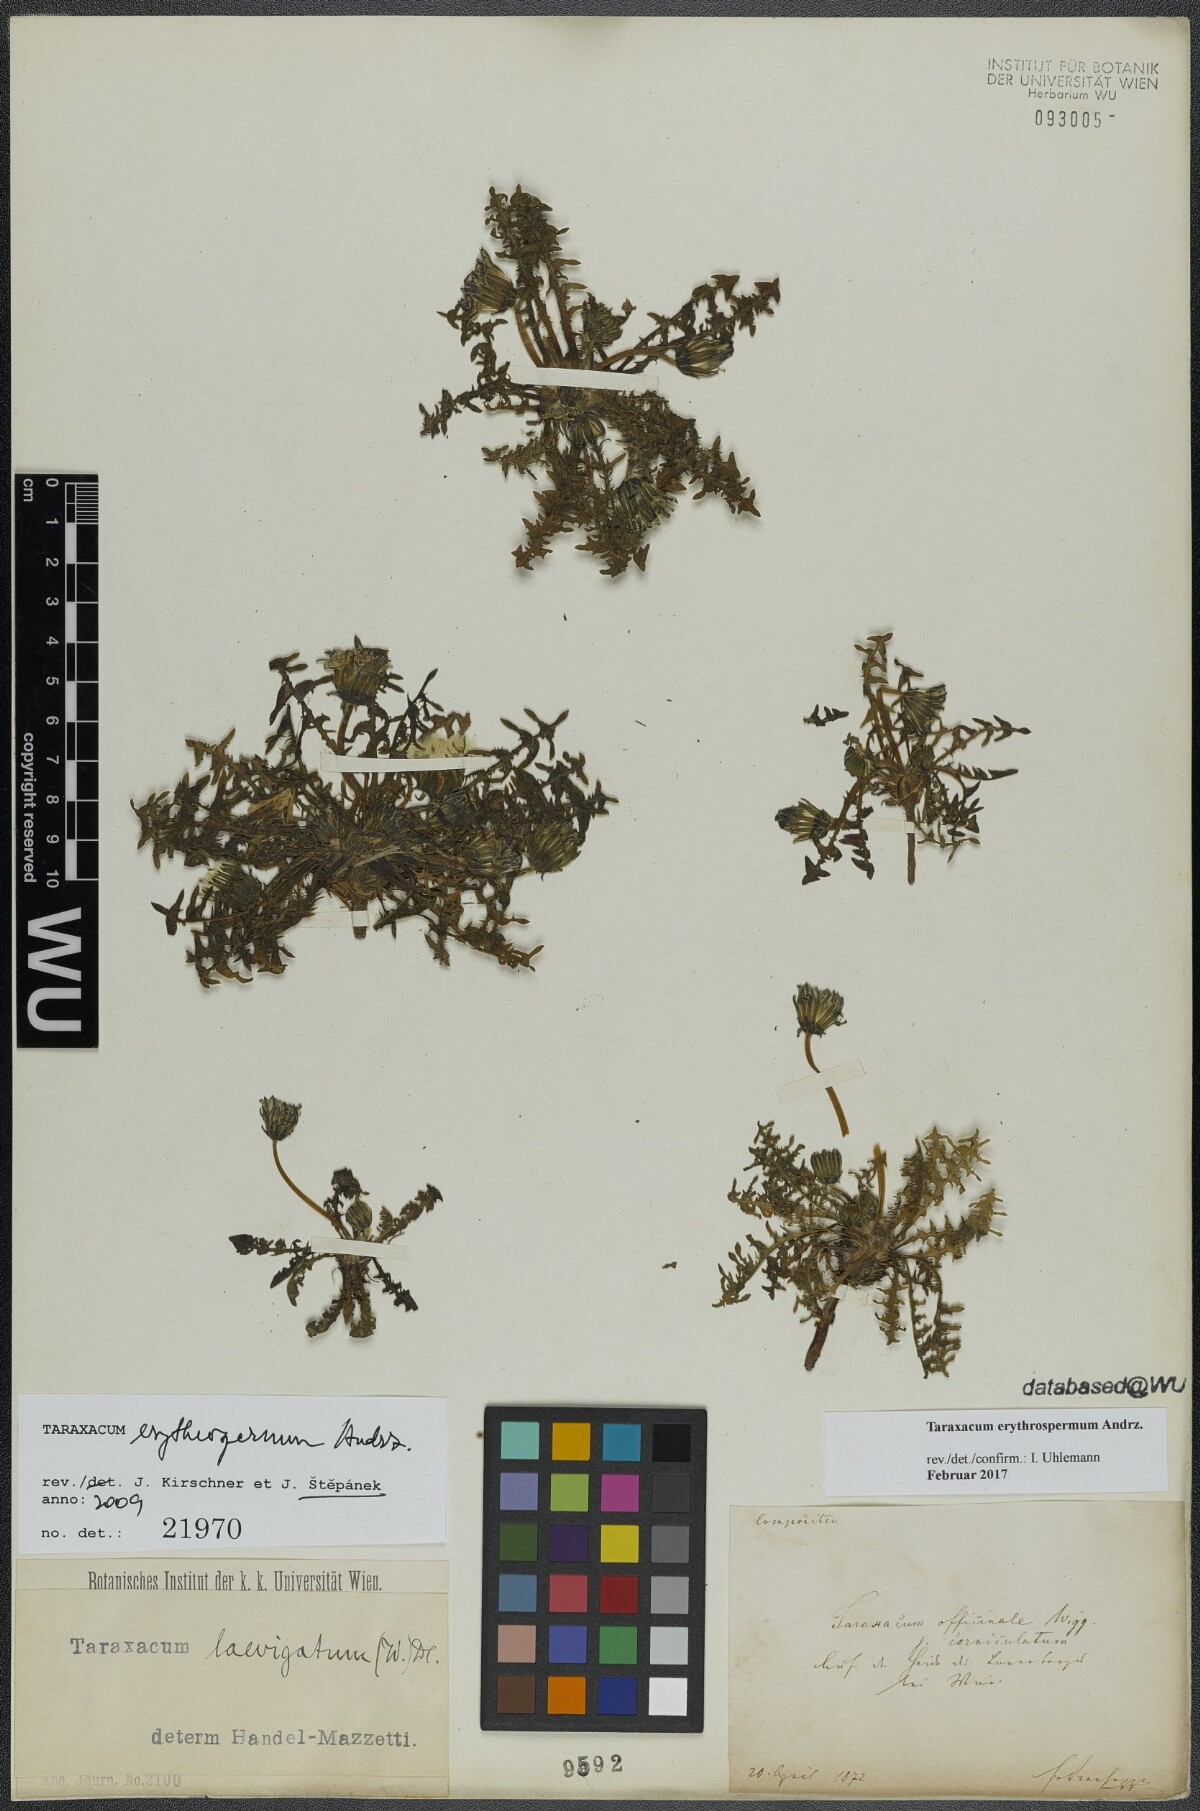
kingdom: Plantae
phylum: Tracheophyta
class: Magnoliopsida
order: Asterales
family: Asteraceae
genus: Taraxacum
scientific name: Taraxacum erythrospermum
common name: Rock dandelion
